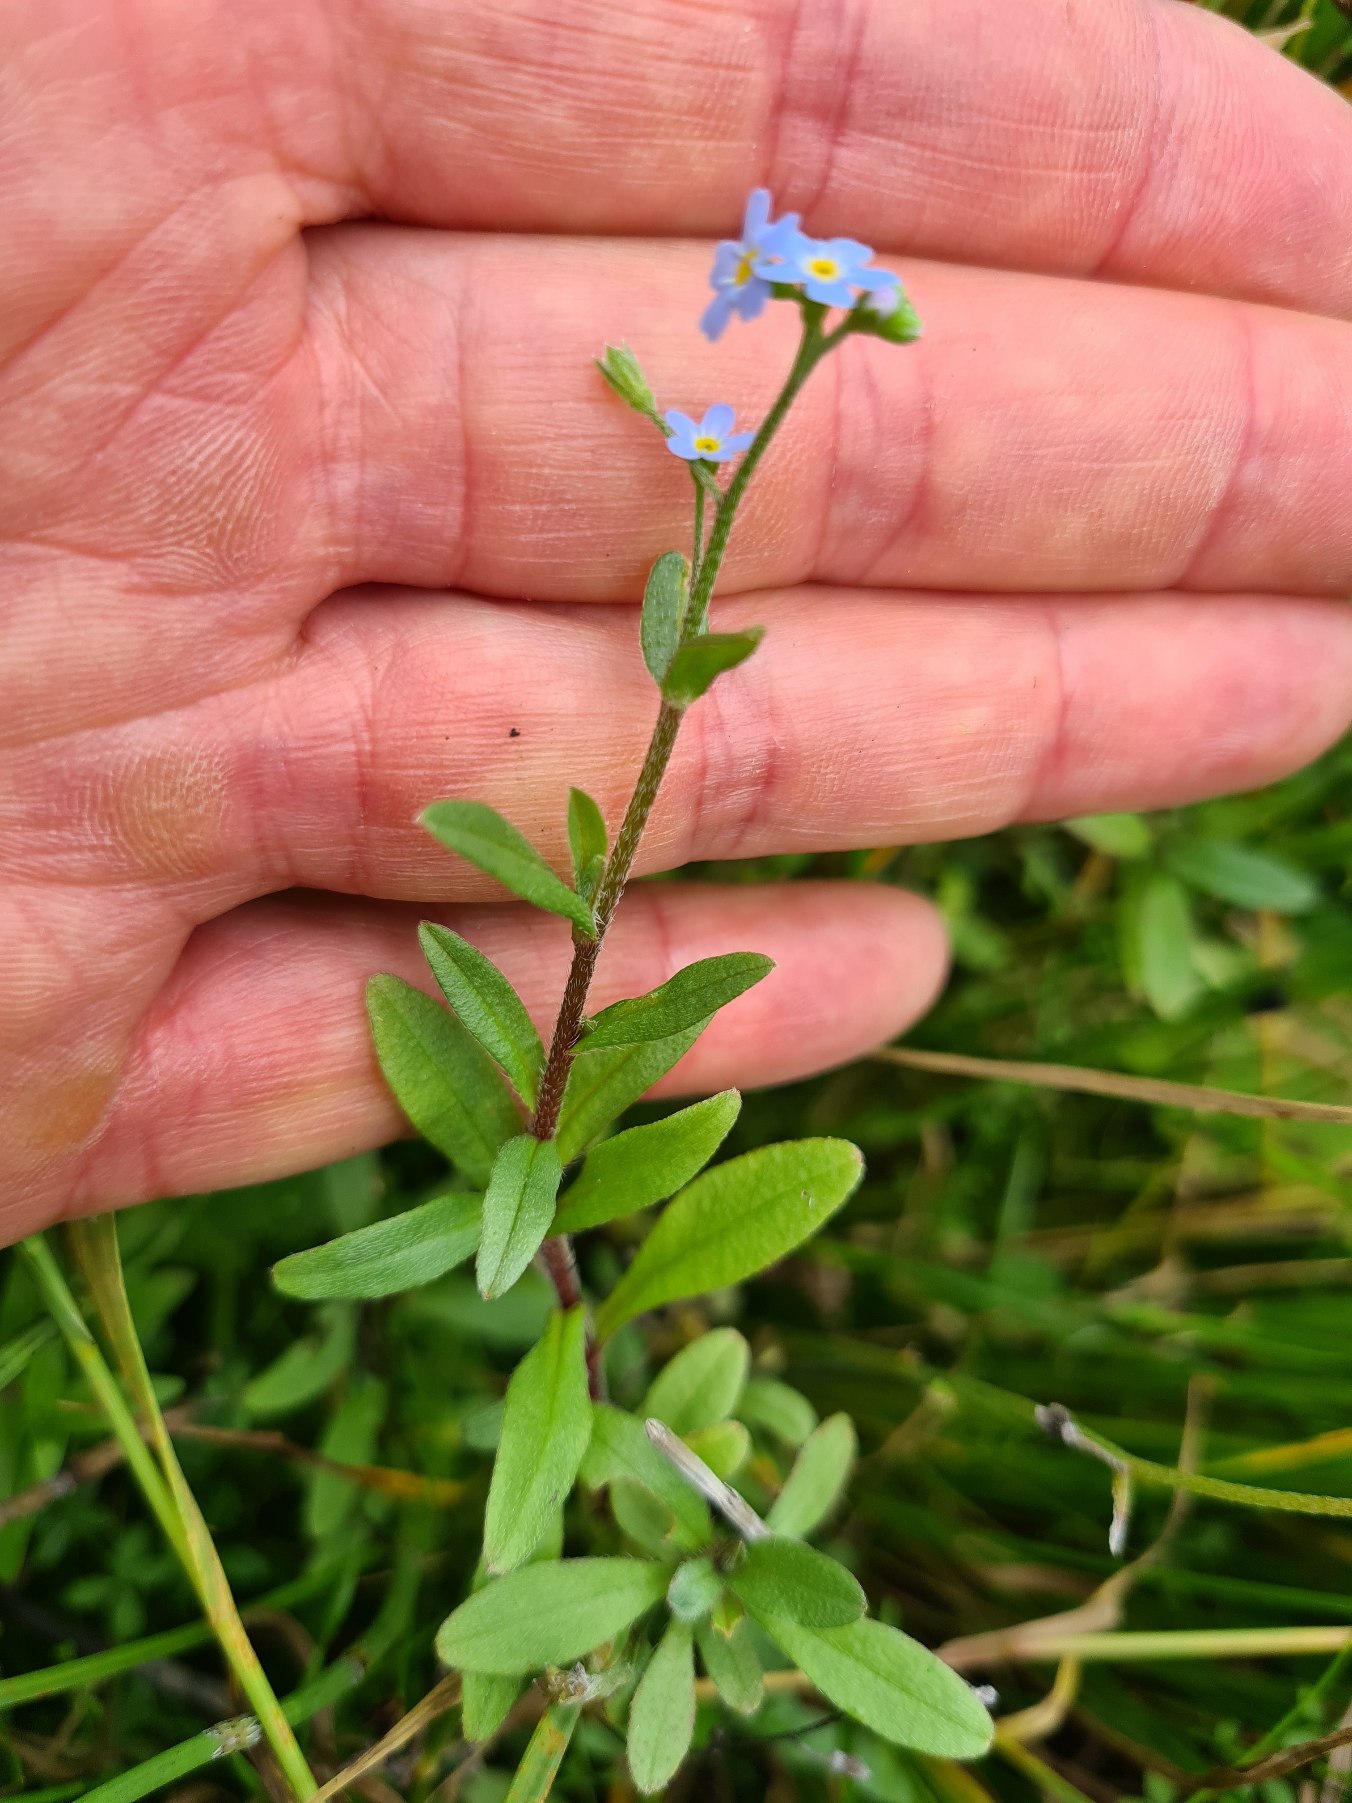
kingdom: Plantae
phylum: Tracheophyta
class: Magnoliopsida
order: Boraginales
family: Boraginaceae
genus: Myosotis
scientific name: Myosotis laxa
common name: Sump-forglemmigej
